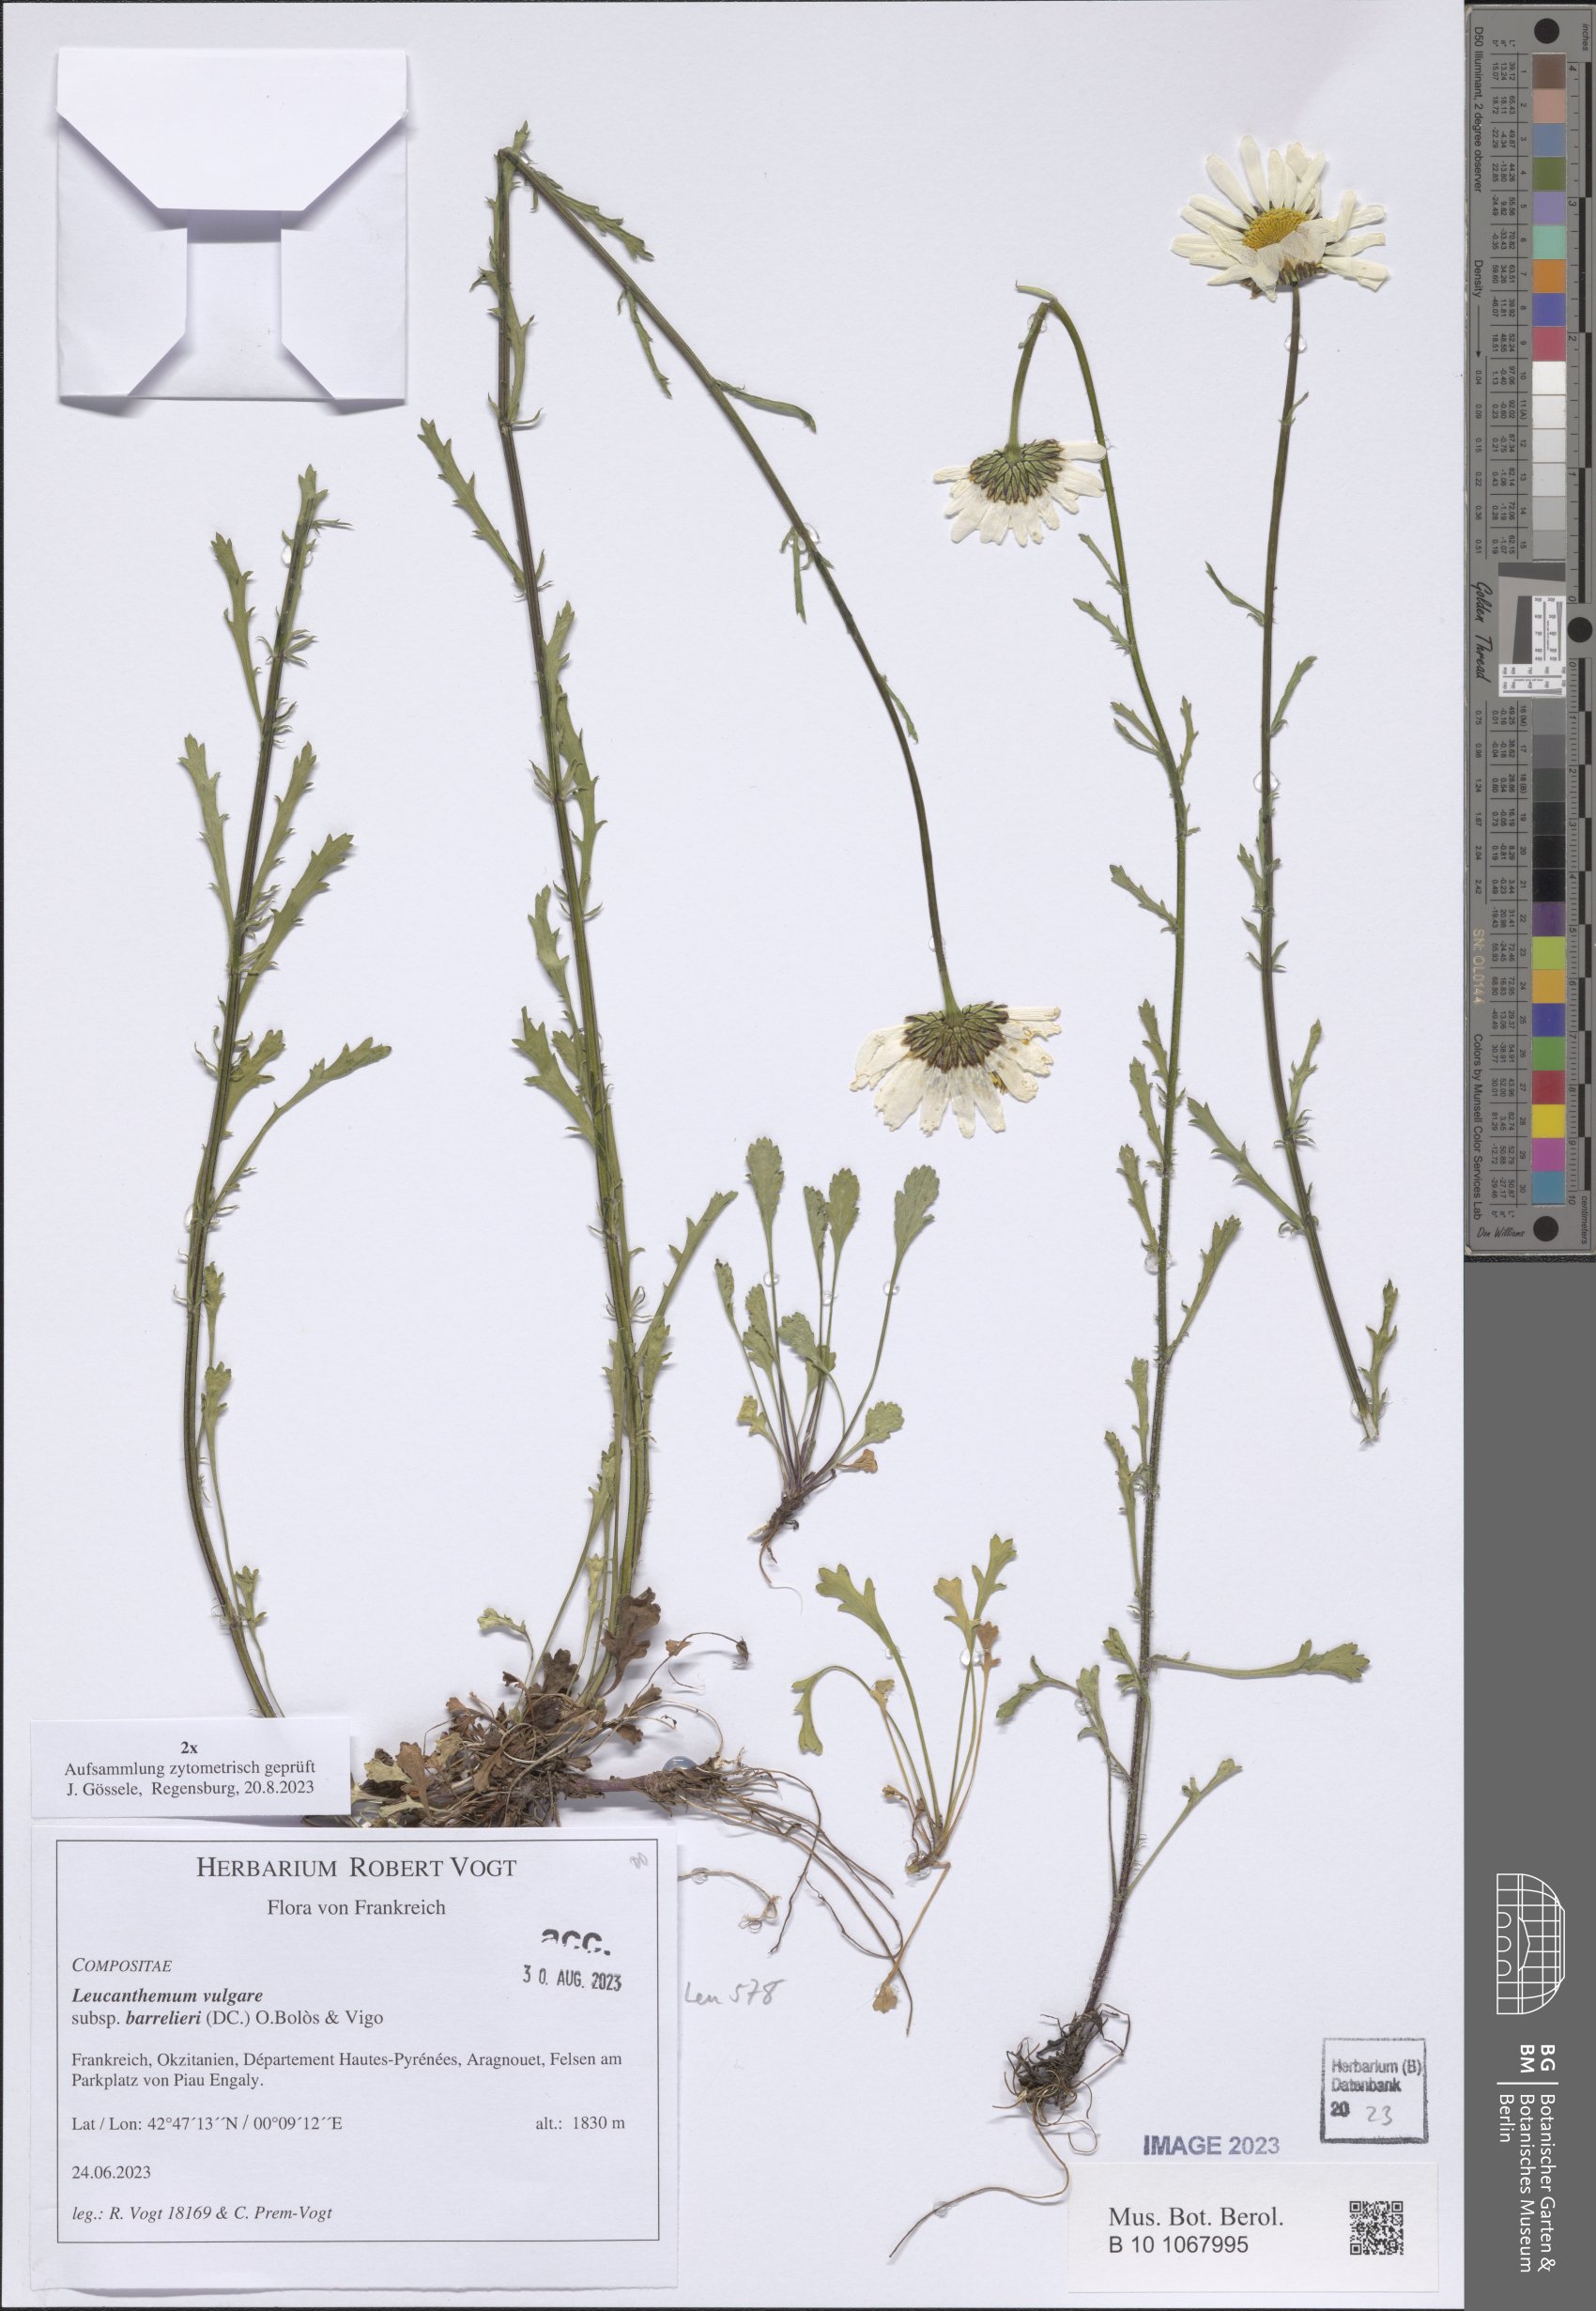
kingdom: Plantae
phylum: Tracheophyta
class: Magnoliopsida
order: Asterales
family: Asteraceae
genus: Leucanthemum
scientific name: Leucanthemum pyrenaicum
